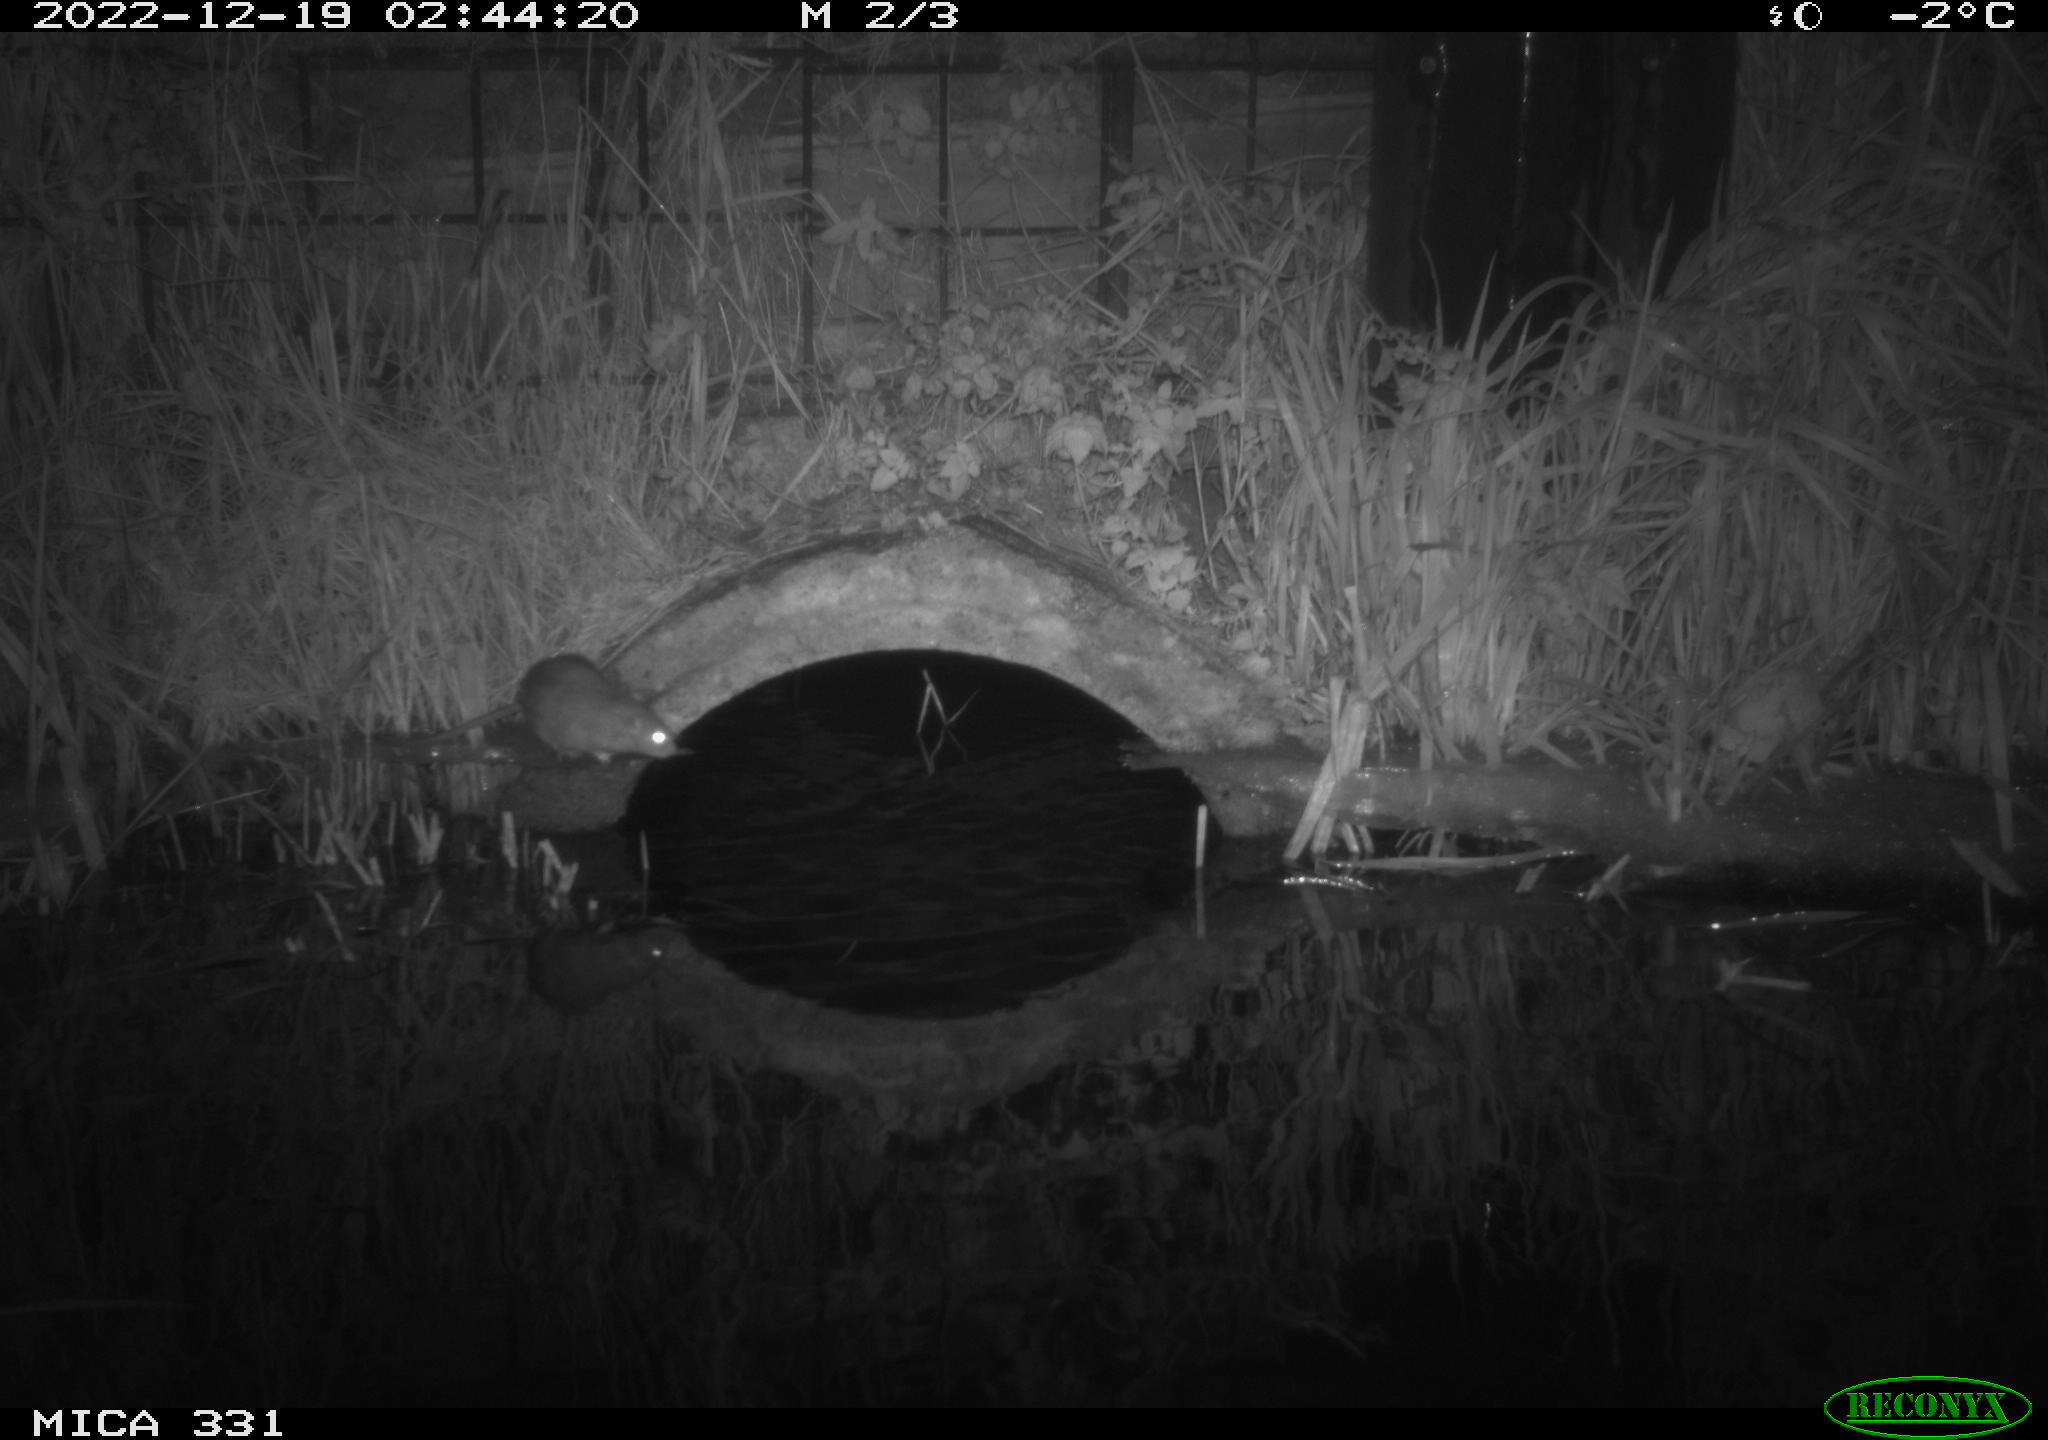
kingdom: Animalia
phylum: Chordata
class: Mammalia
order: Rodentia
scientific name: Rodentia
